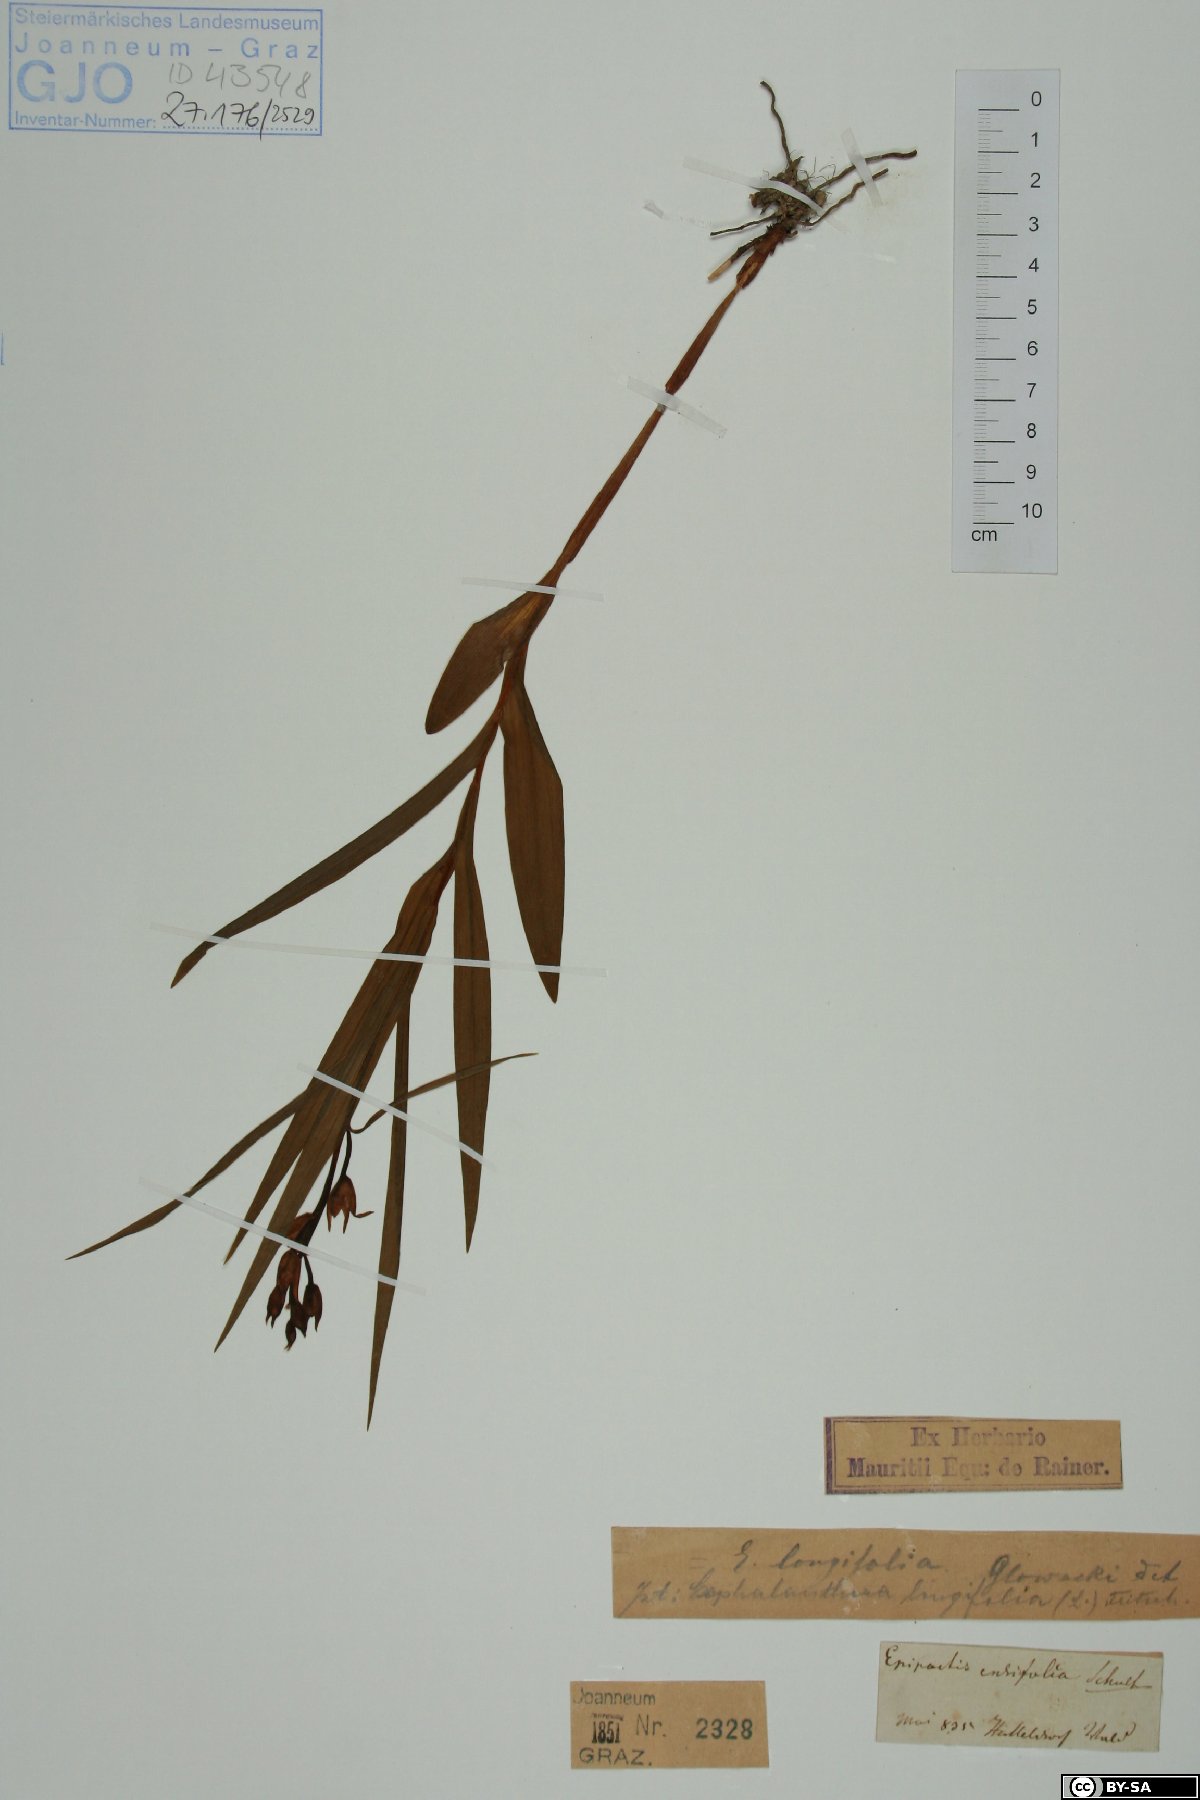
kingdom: Plantae
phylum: Tracheophyta
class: Liliopsida
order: Asparagales
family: Orchidaceae
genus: Cephalanthera
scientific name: Cephalanthera longifolia
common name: Narrow-leaved helleborine
